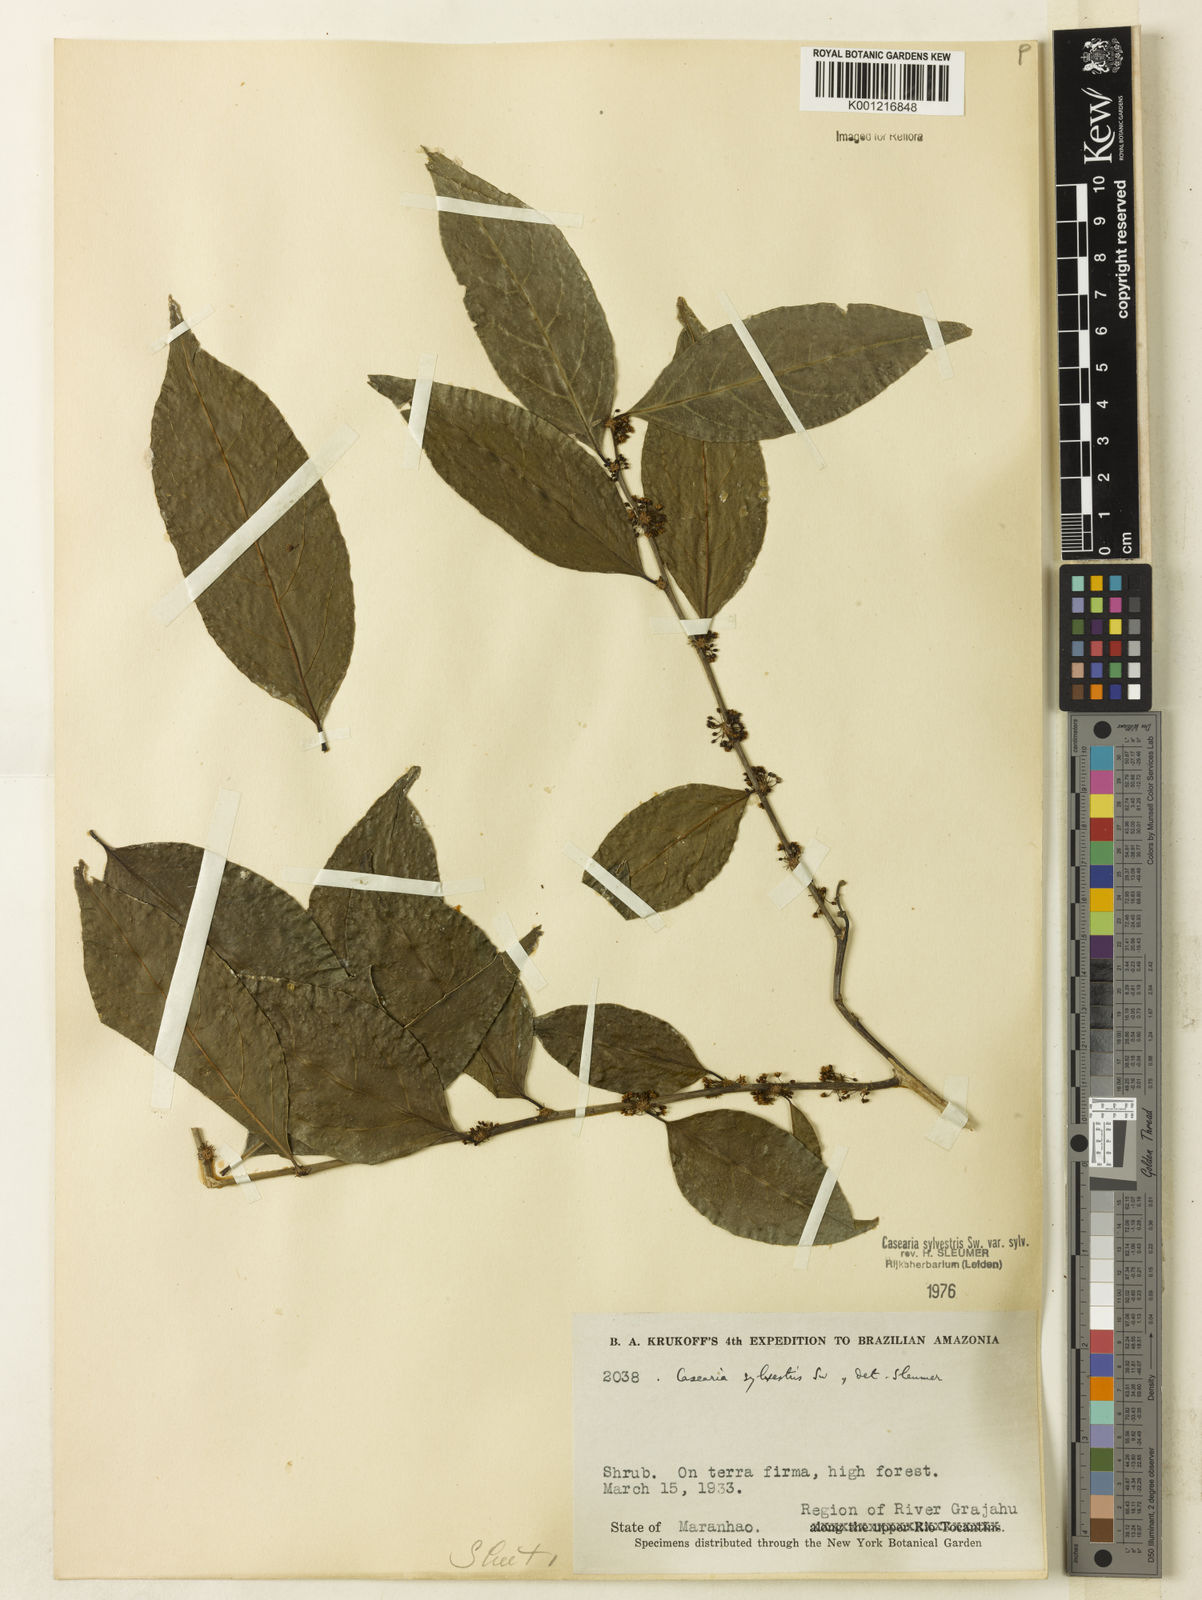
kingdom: Plantae
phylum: Tracheophyta
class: Magnoliopsida
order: Malpighiales
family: Salicaceae
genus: Casearia
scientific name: Casearia sylvestris
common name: Wild sage
